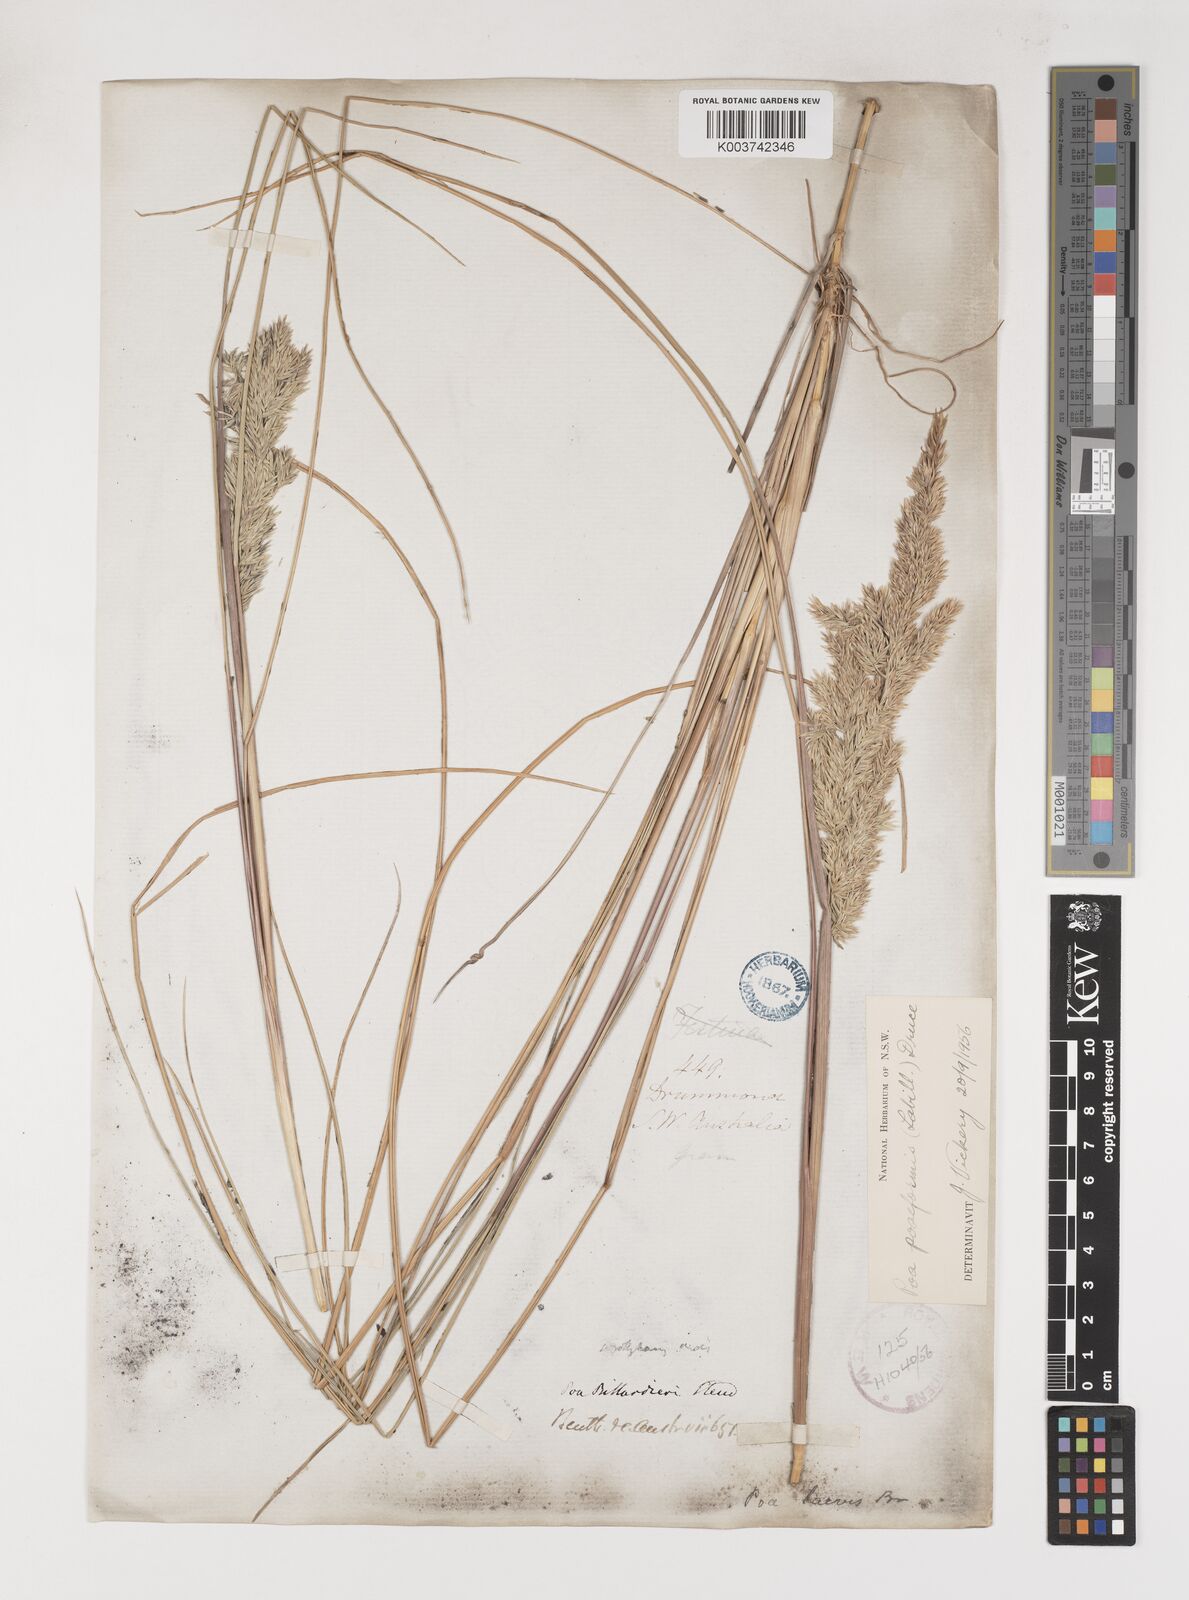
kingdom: Plantae
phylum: Tracheophyta
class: Liliopsida
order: Poales
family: Poaceae
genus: Poa
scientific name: Poa poiformis
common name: Tussock poa
